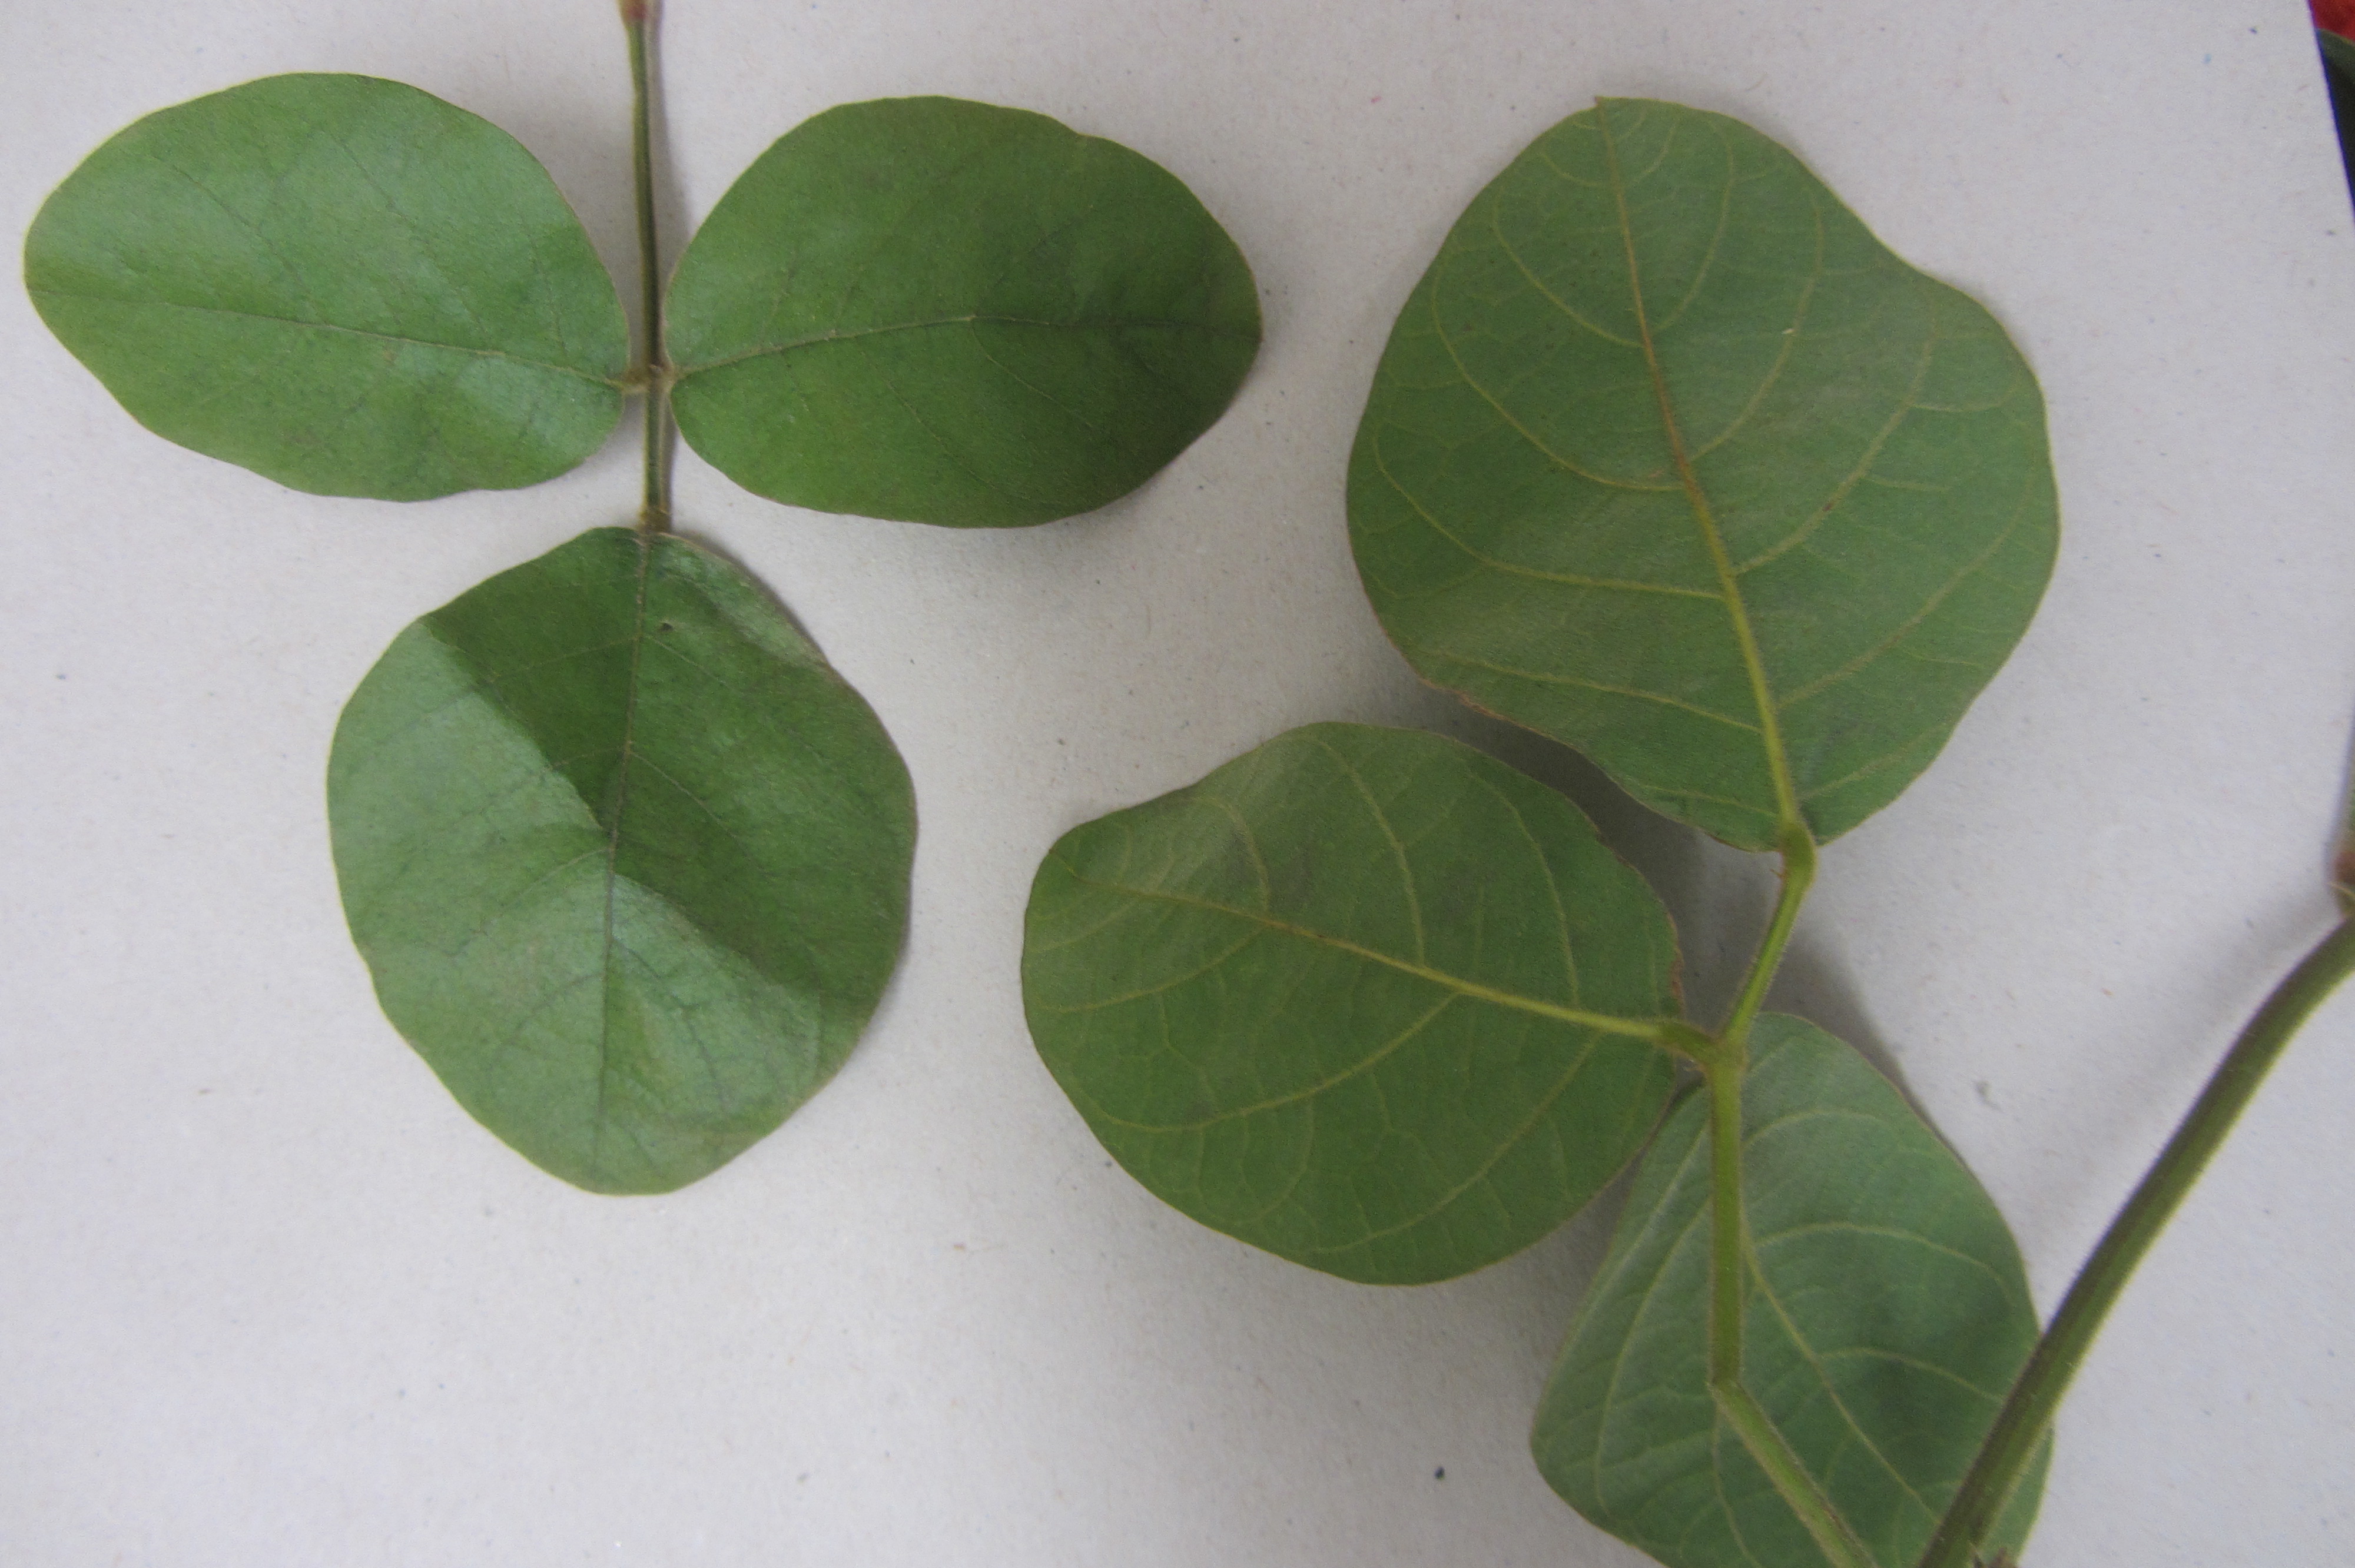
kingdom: Plantae
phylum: Tracheophyta
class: Magnoliopsida
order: Fabales
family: Fabaceae
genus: Kennedia
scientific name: Kennedia rubicunda
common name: Red kennedy-pea
